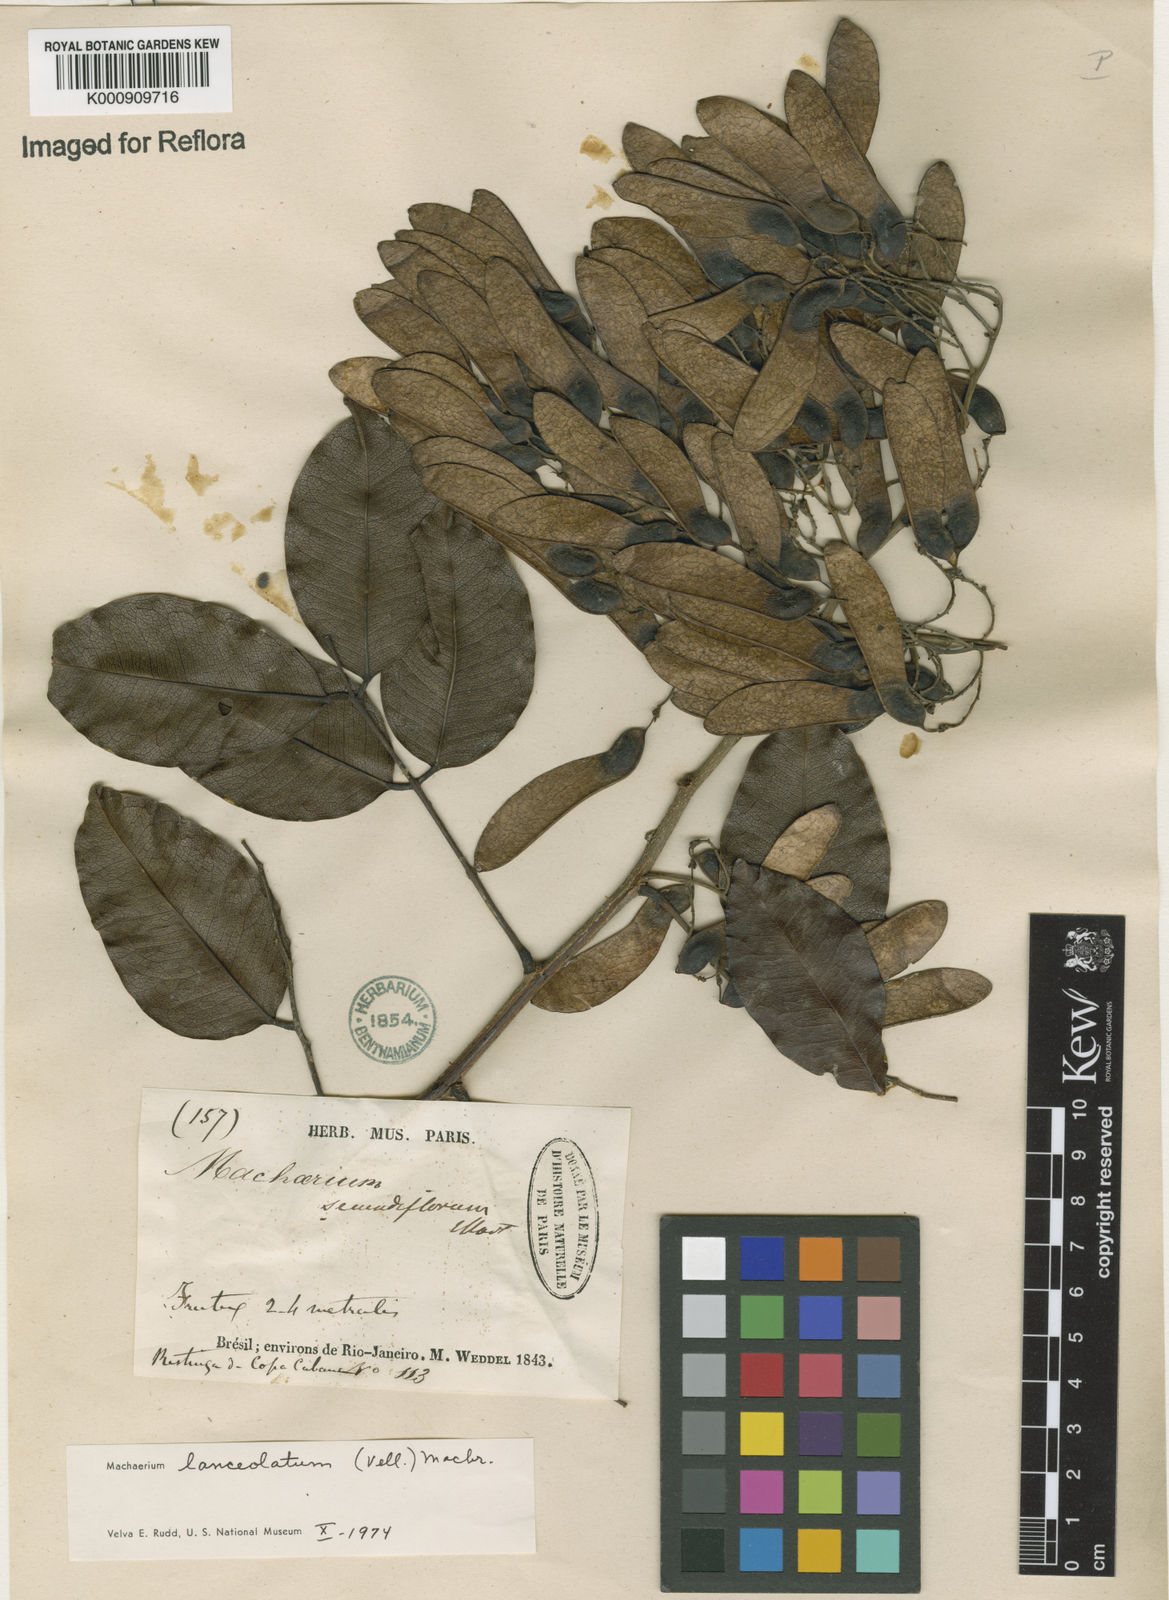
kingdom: Plantae
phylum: Tracheophyta
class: Magnoliopsida
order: Fabales
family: Fabaceae
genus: Machaerium
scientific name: Machaerium lanceolatum
